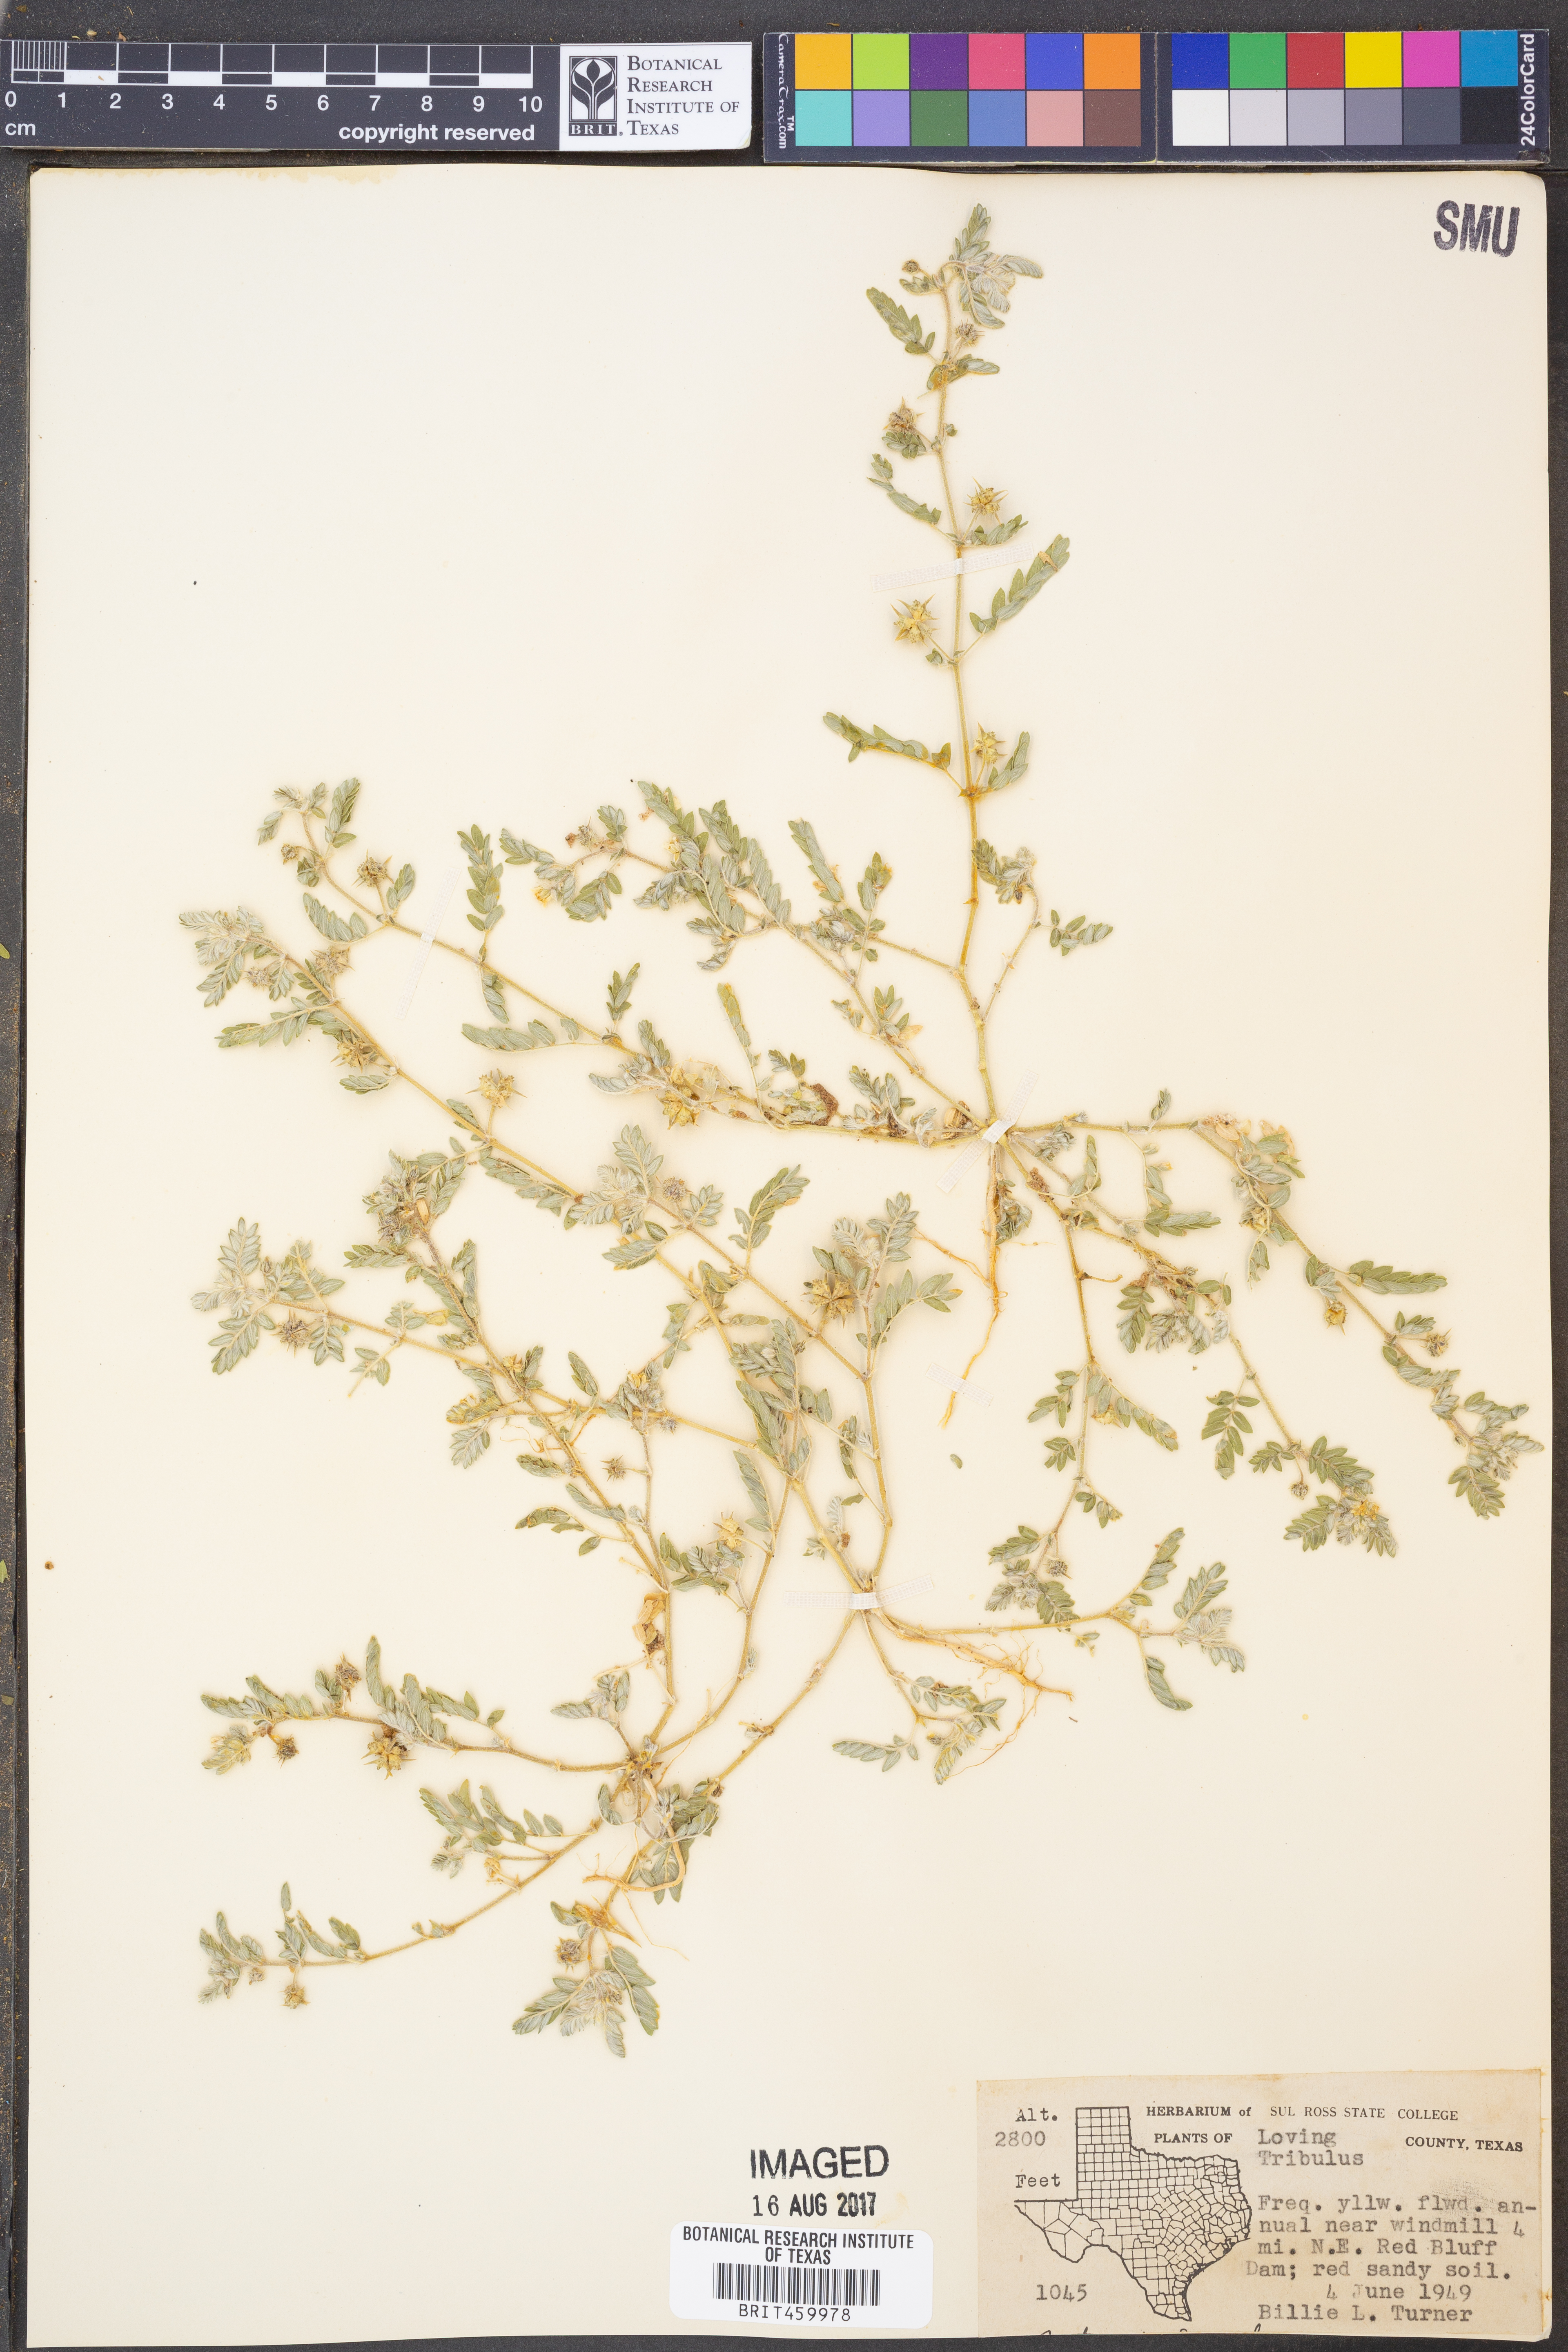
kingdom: Plantae
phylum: Tracheophyta
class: Magnoliopsida
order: Zygophyllales
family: Zygophyllaceae
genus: Tribulus
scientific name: Tribulus
